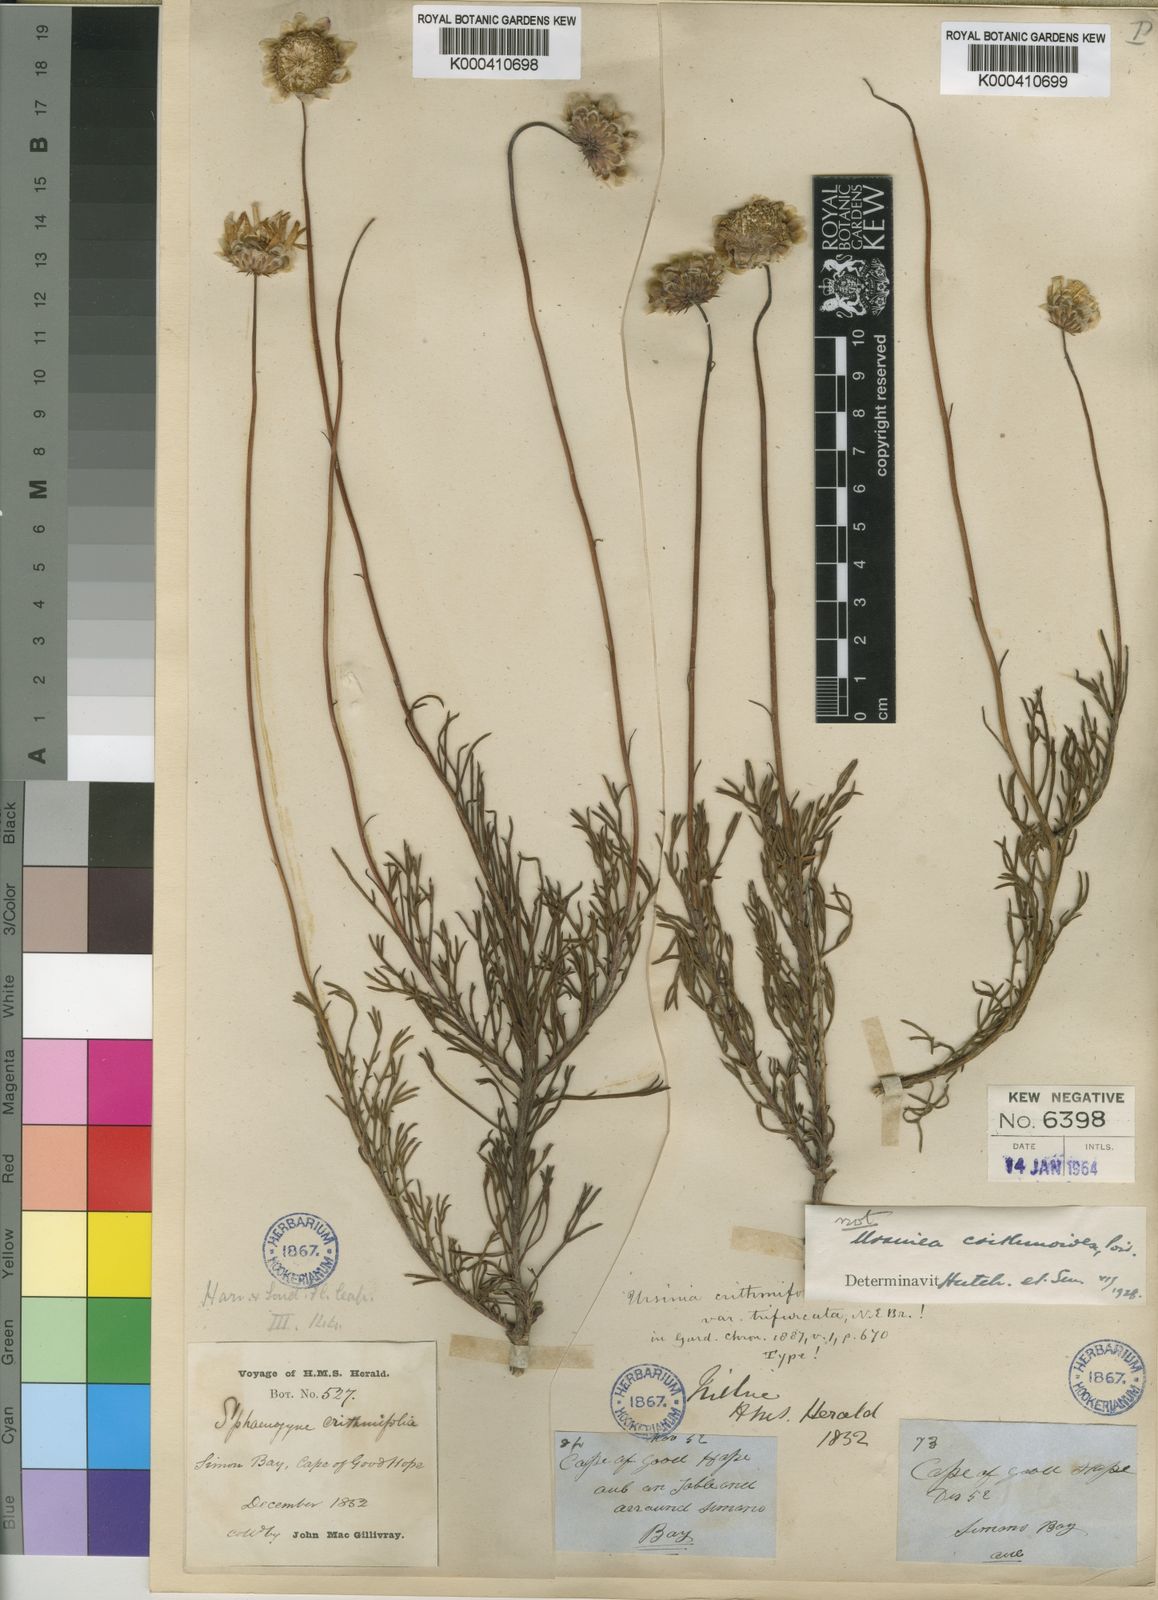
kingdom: Plantae
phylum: Tracheophyta
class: Magnoliopsida
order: Asterales
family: Asteraceae
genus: Ursinia
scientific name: Ursinia paleacea
